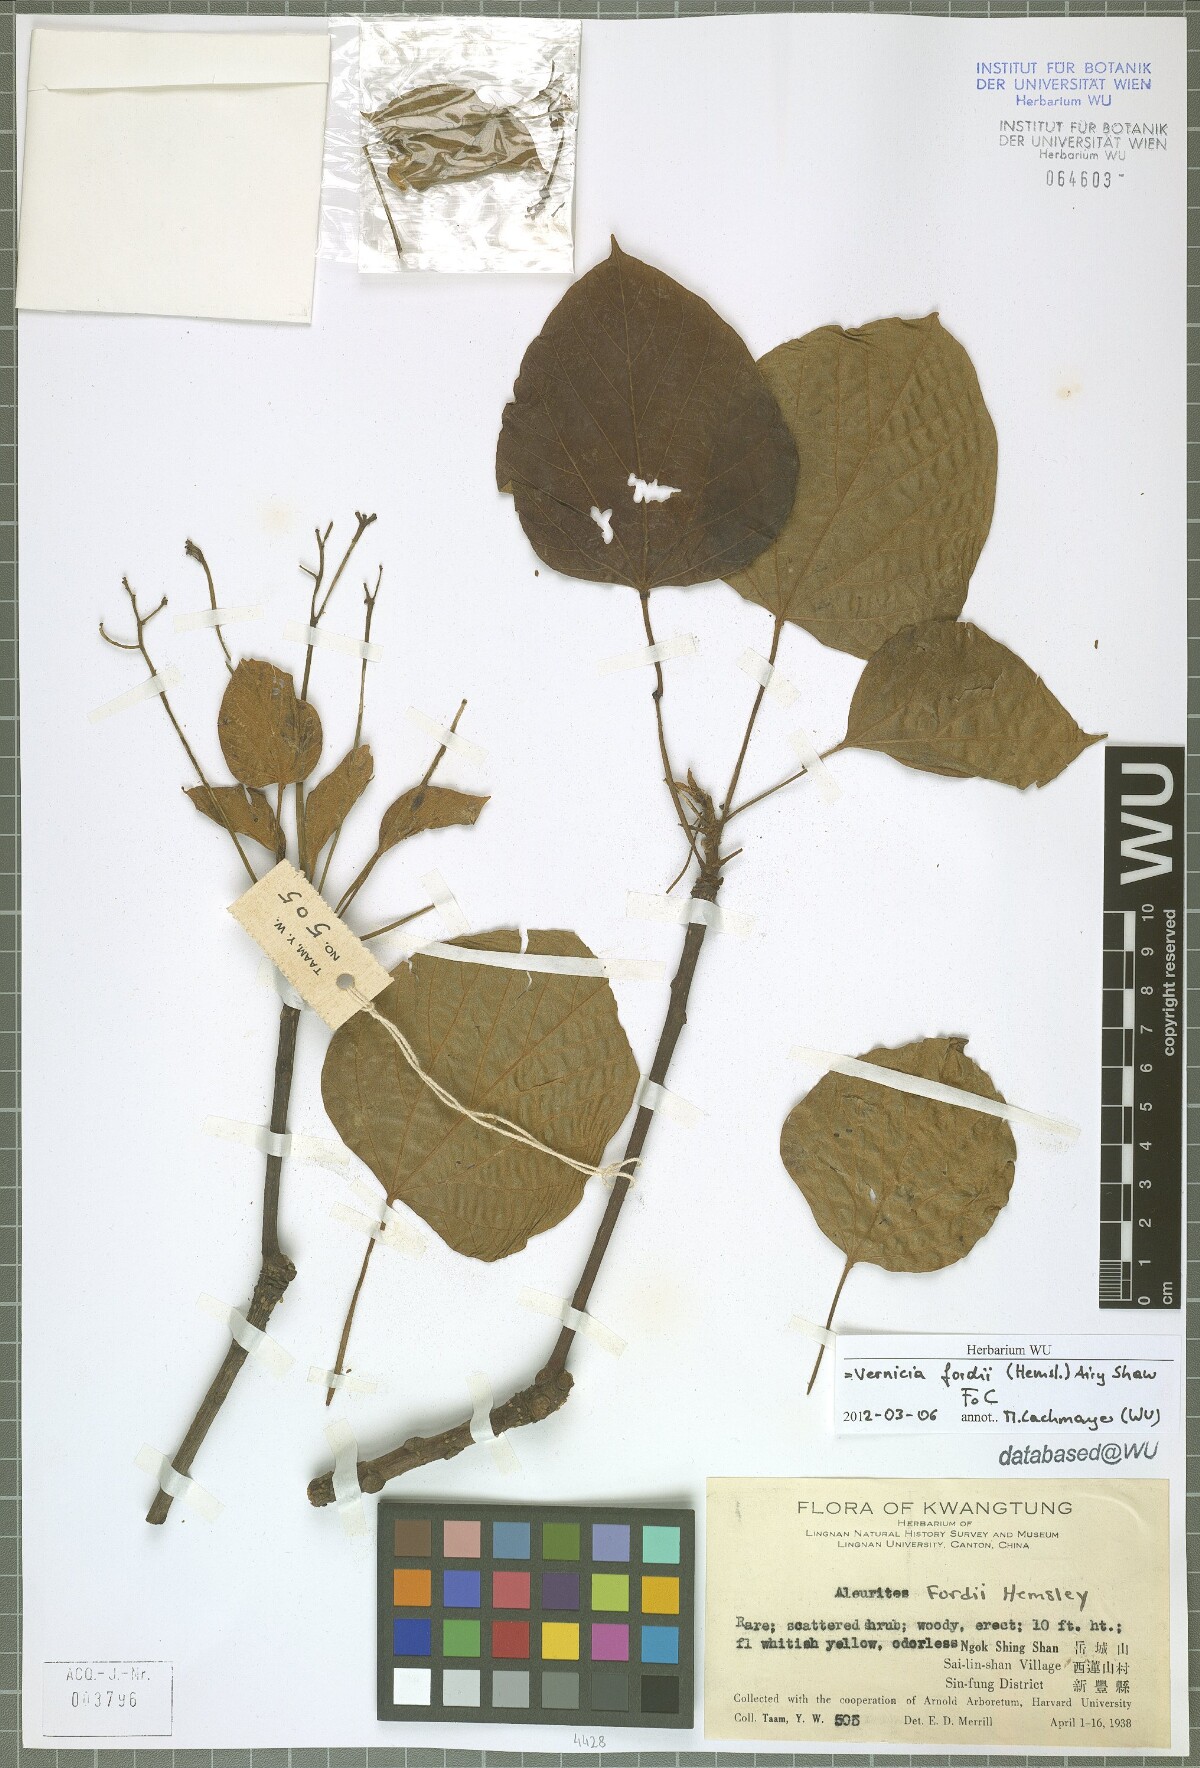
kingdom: Plantae
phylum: Tracheophyta
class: Magnoliopsida
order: Malpighiales
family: Euphorbiaceae
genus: Vernicia
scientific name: Vernicia fordii
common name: Tungoil tree
